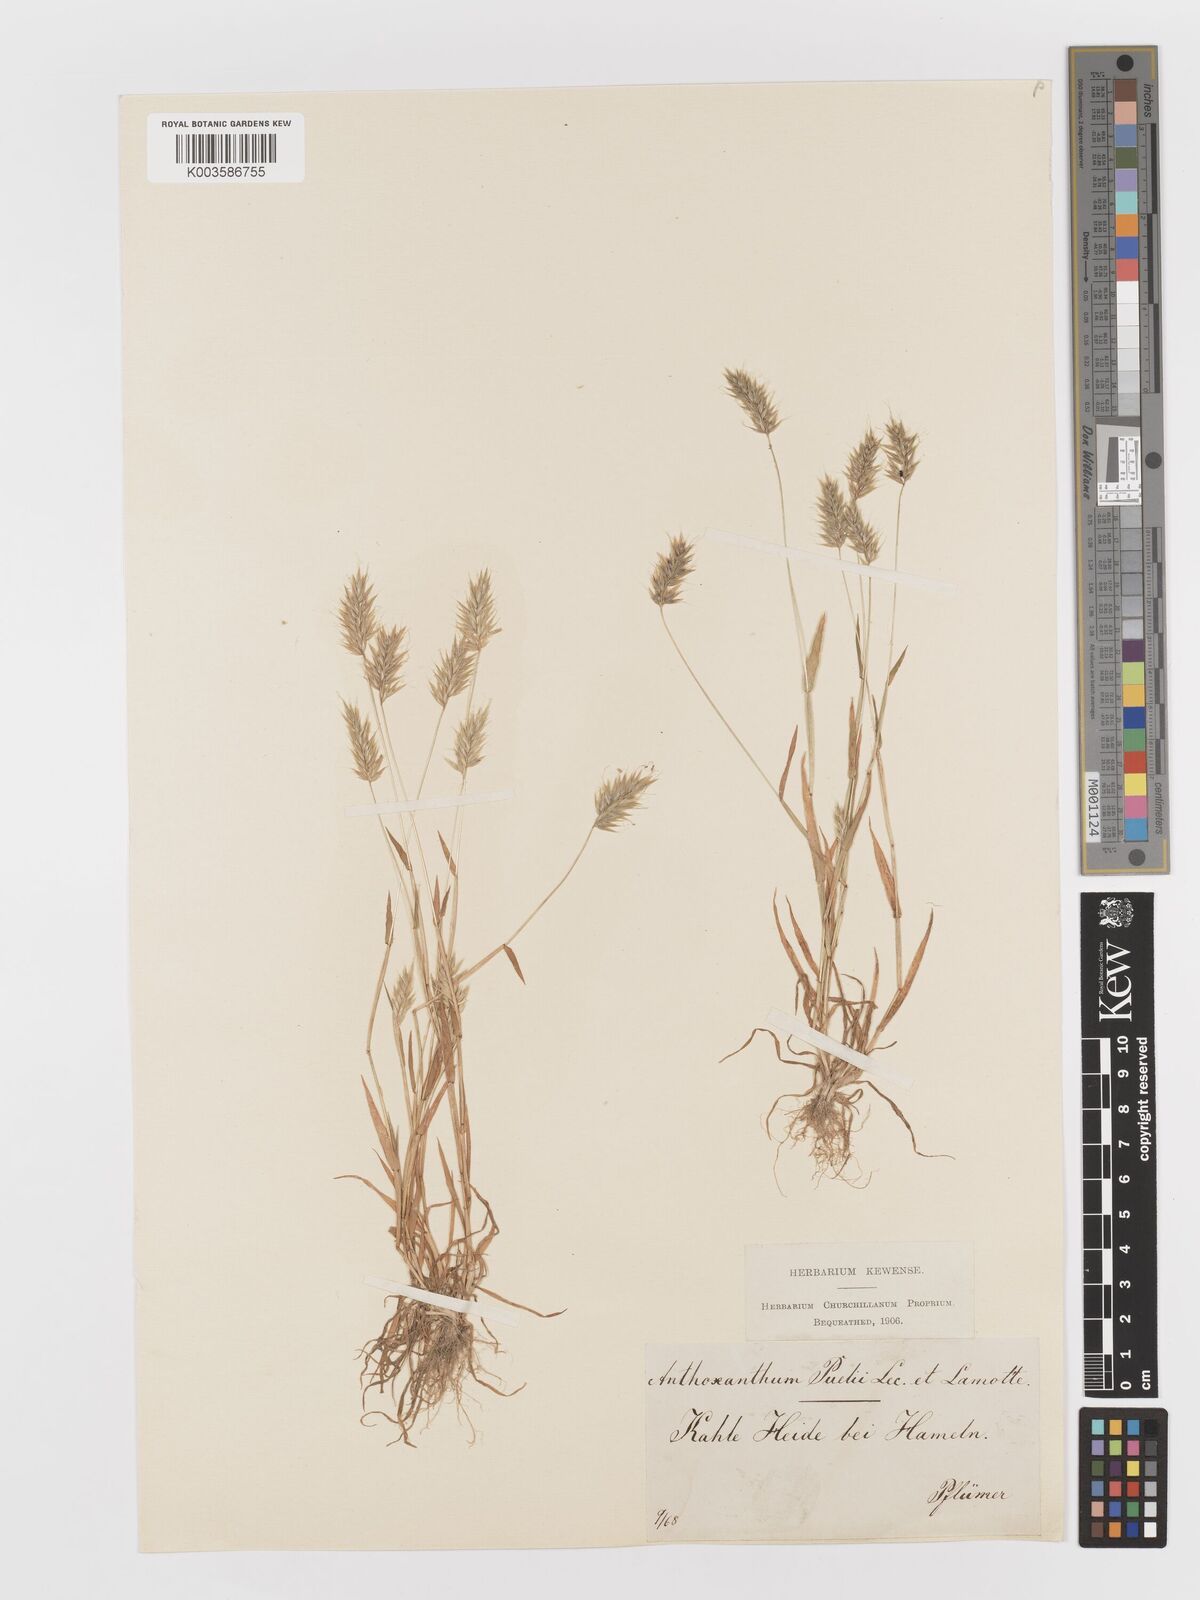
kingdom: Plantae
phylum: Tracheophyta
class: Liliopsida
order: Poales
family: Poaceae
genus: Anthoxanthum
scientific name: Anthoxanthum aristatum
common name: Annual vernal-grass
